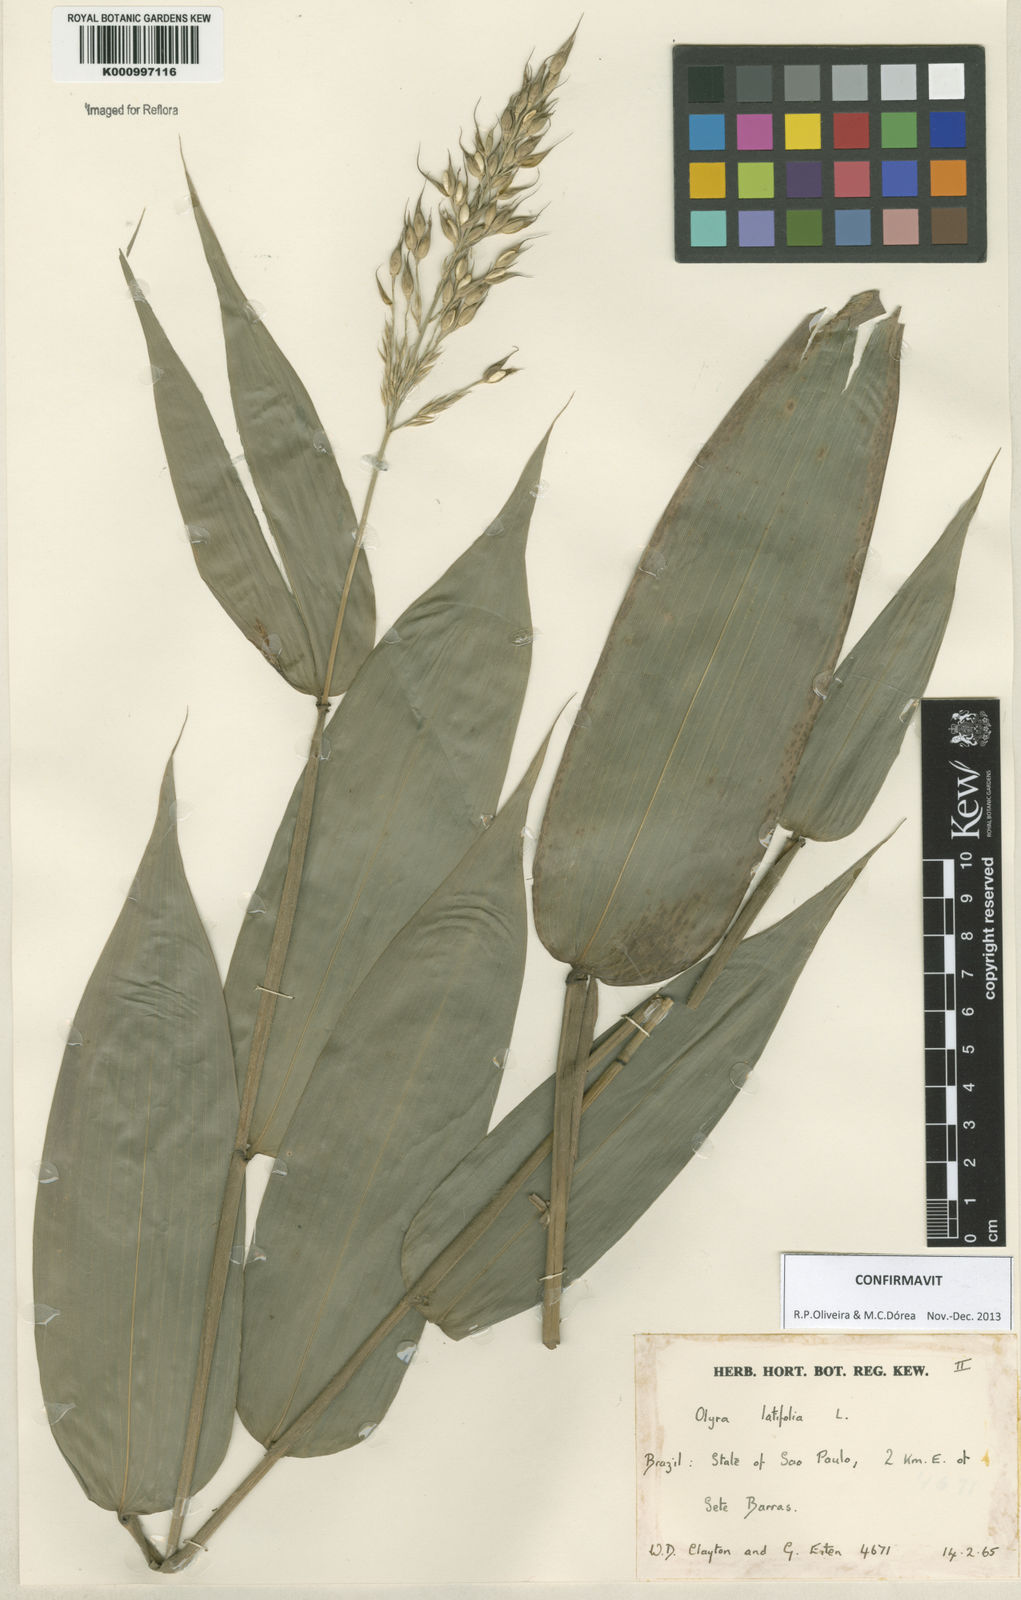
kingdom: Plantae
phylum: Tracheophyta
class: Liliopsida
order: Poales
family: Poaceae
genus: Olyra
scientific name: Olyra latifolia
